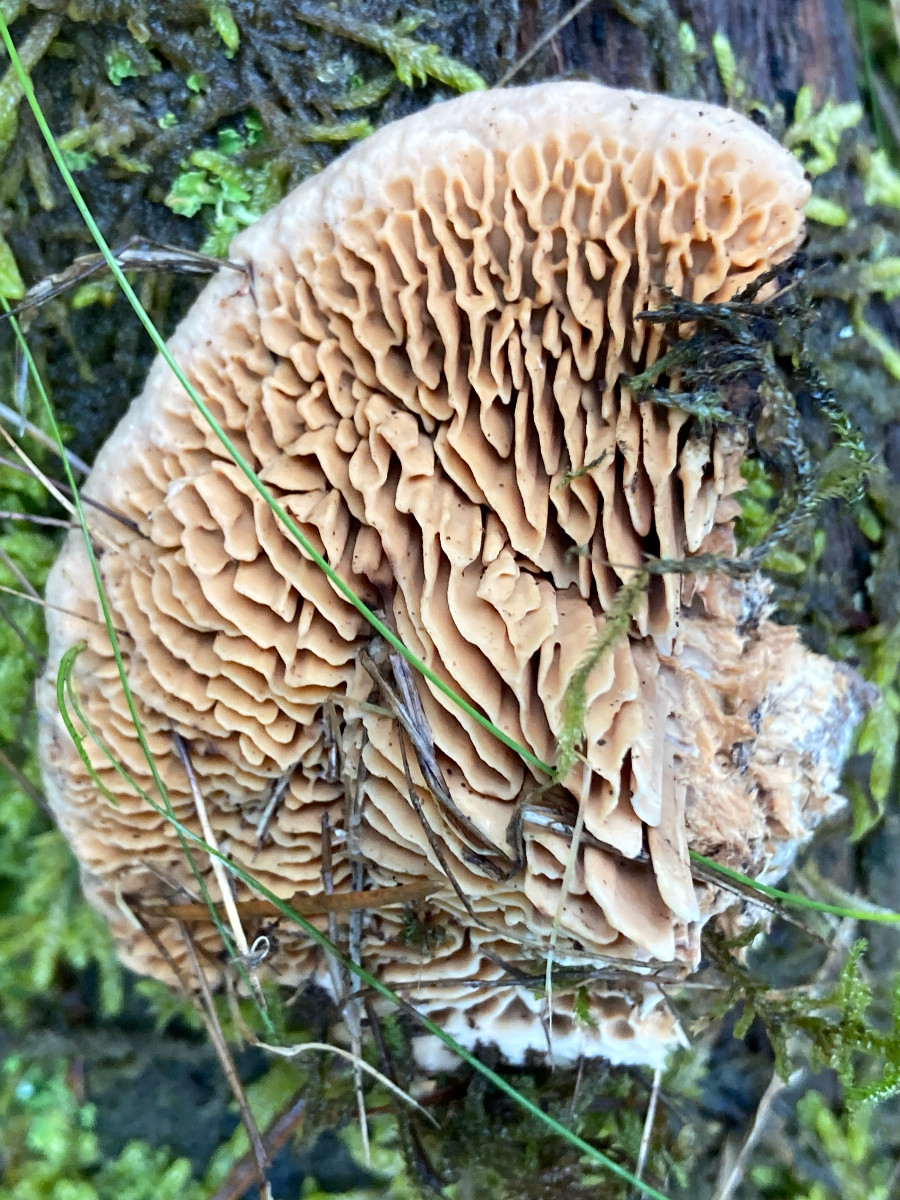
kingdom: Fungi
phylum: Basidiomycota
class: Agaricomycetes
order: Polyporales
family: Fomitopsidaceae
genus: Daedalea
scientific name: Daedalea quercina
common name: ege-labyrintsvamp
